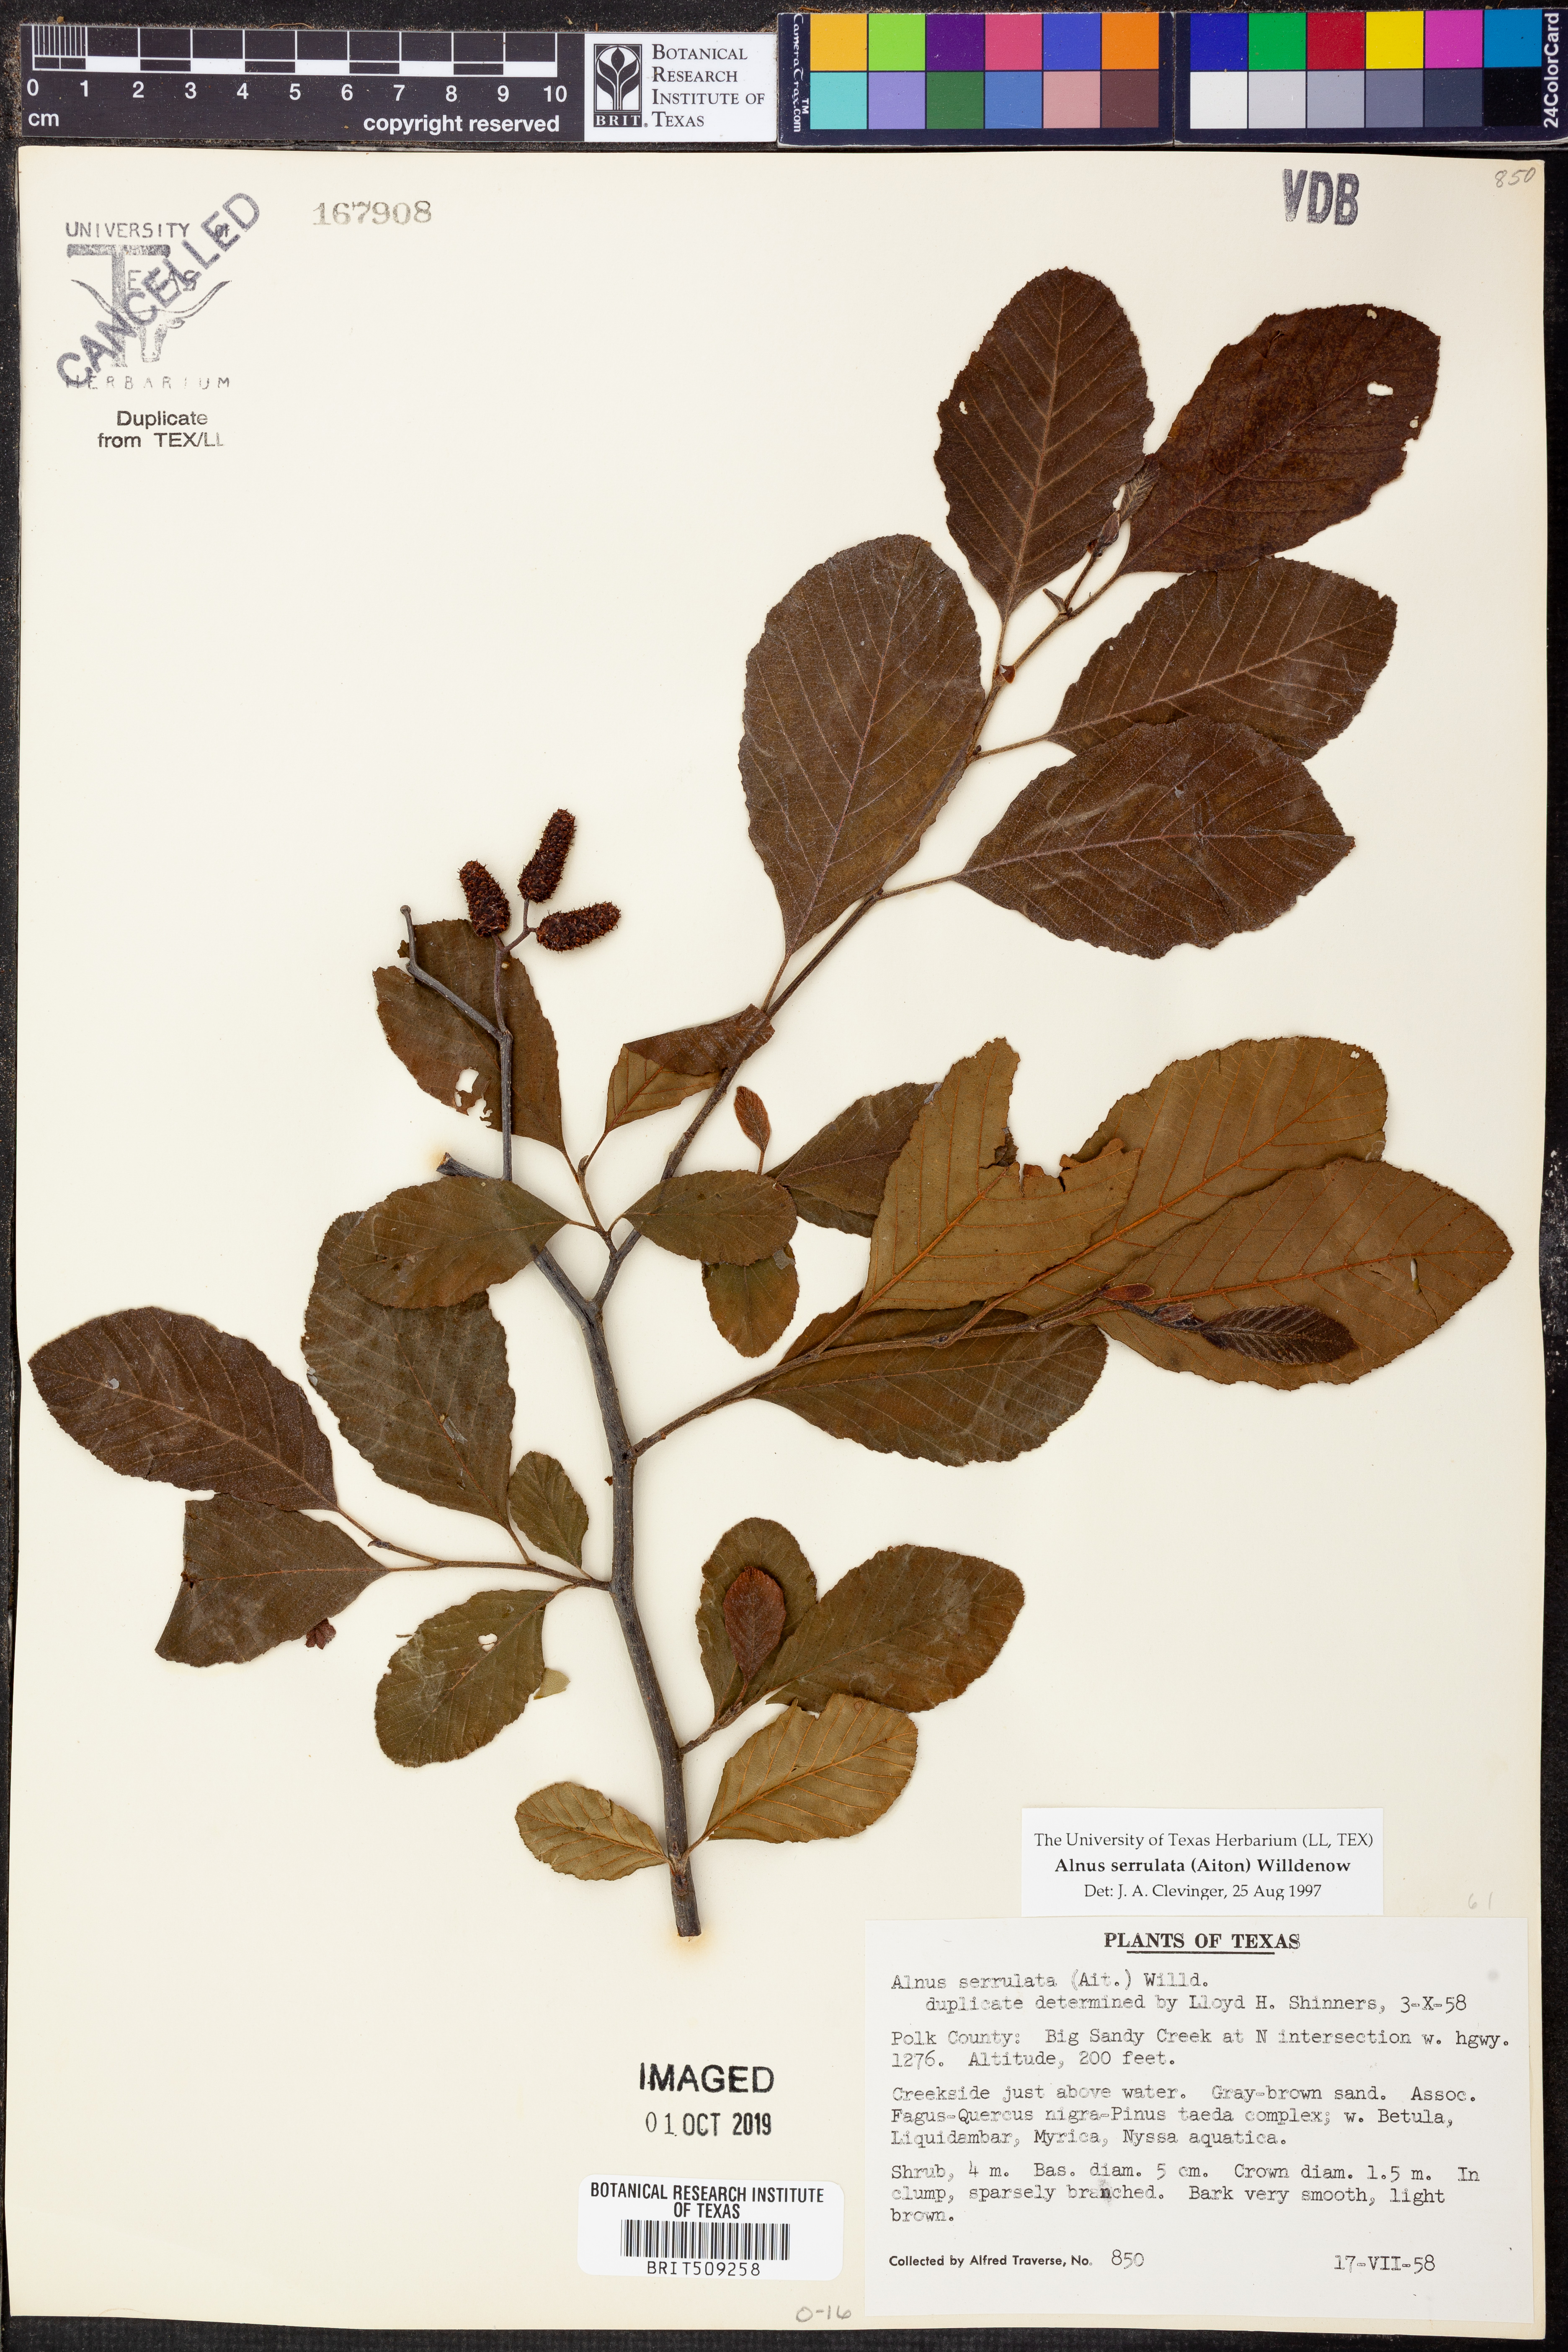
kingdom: Plantae
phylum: Tracheophyta
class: Magnoliopsida
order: Fagales
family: Betulaceae
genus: Alnus
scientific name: Alnus serrulata
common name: Hazel alder
